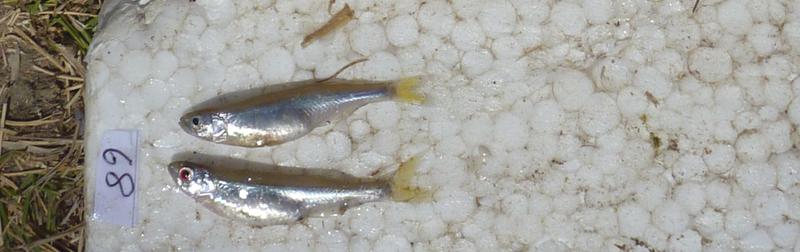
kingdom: Animalia
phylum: Chordata
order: Perciformes
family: Cichlidae
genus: Oreochromis
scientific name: Oreochromis rukwaensis
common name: Lake rukwa tilapia
